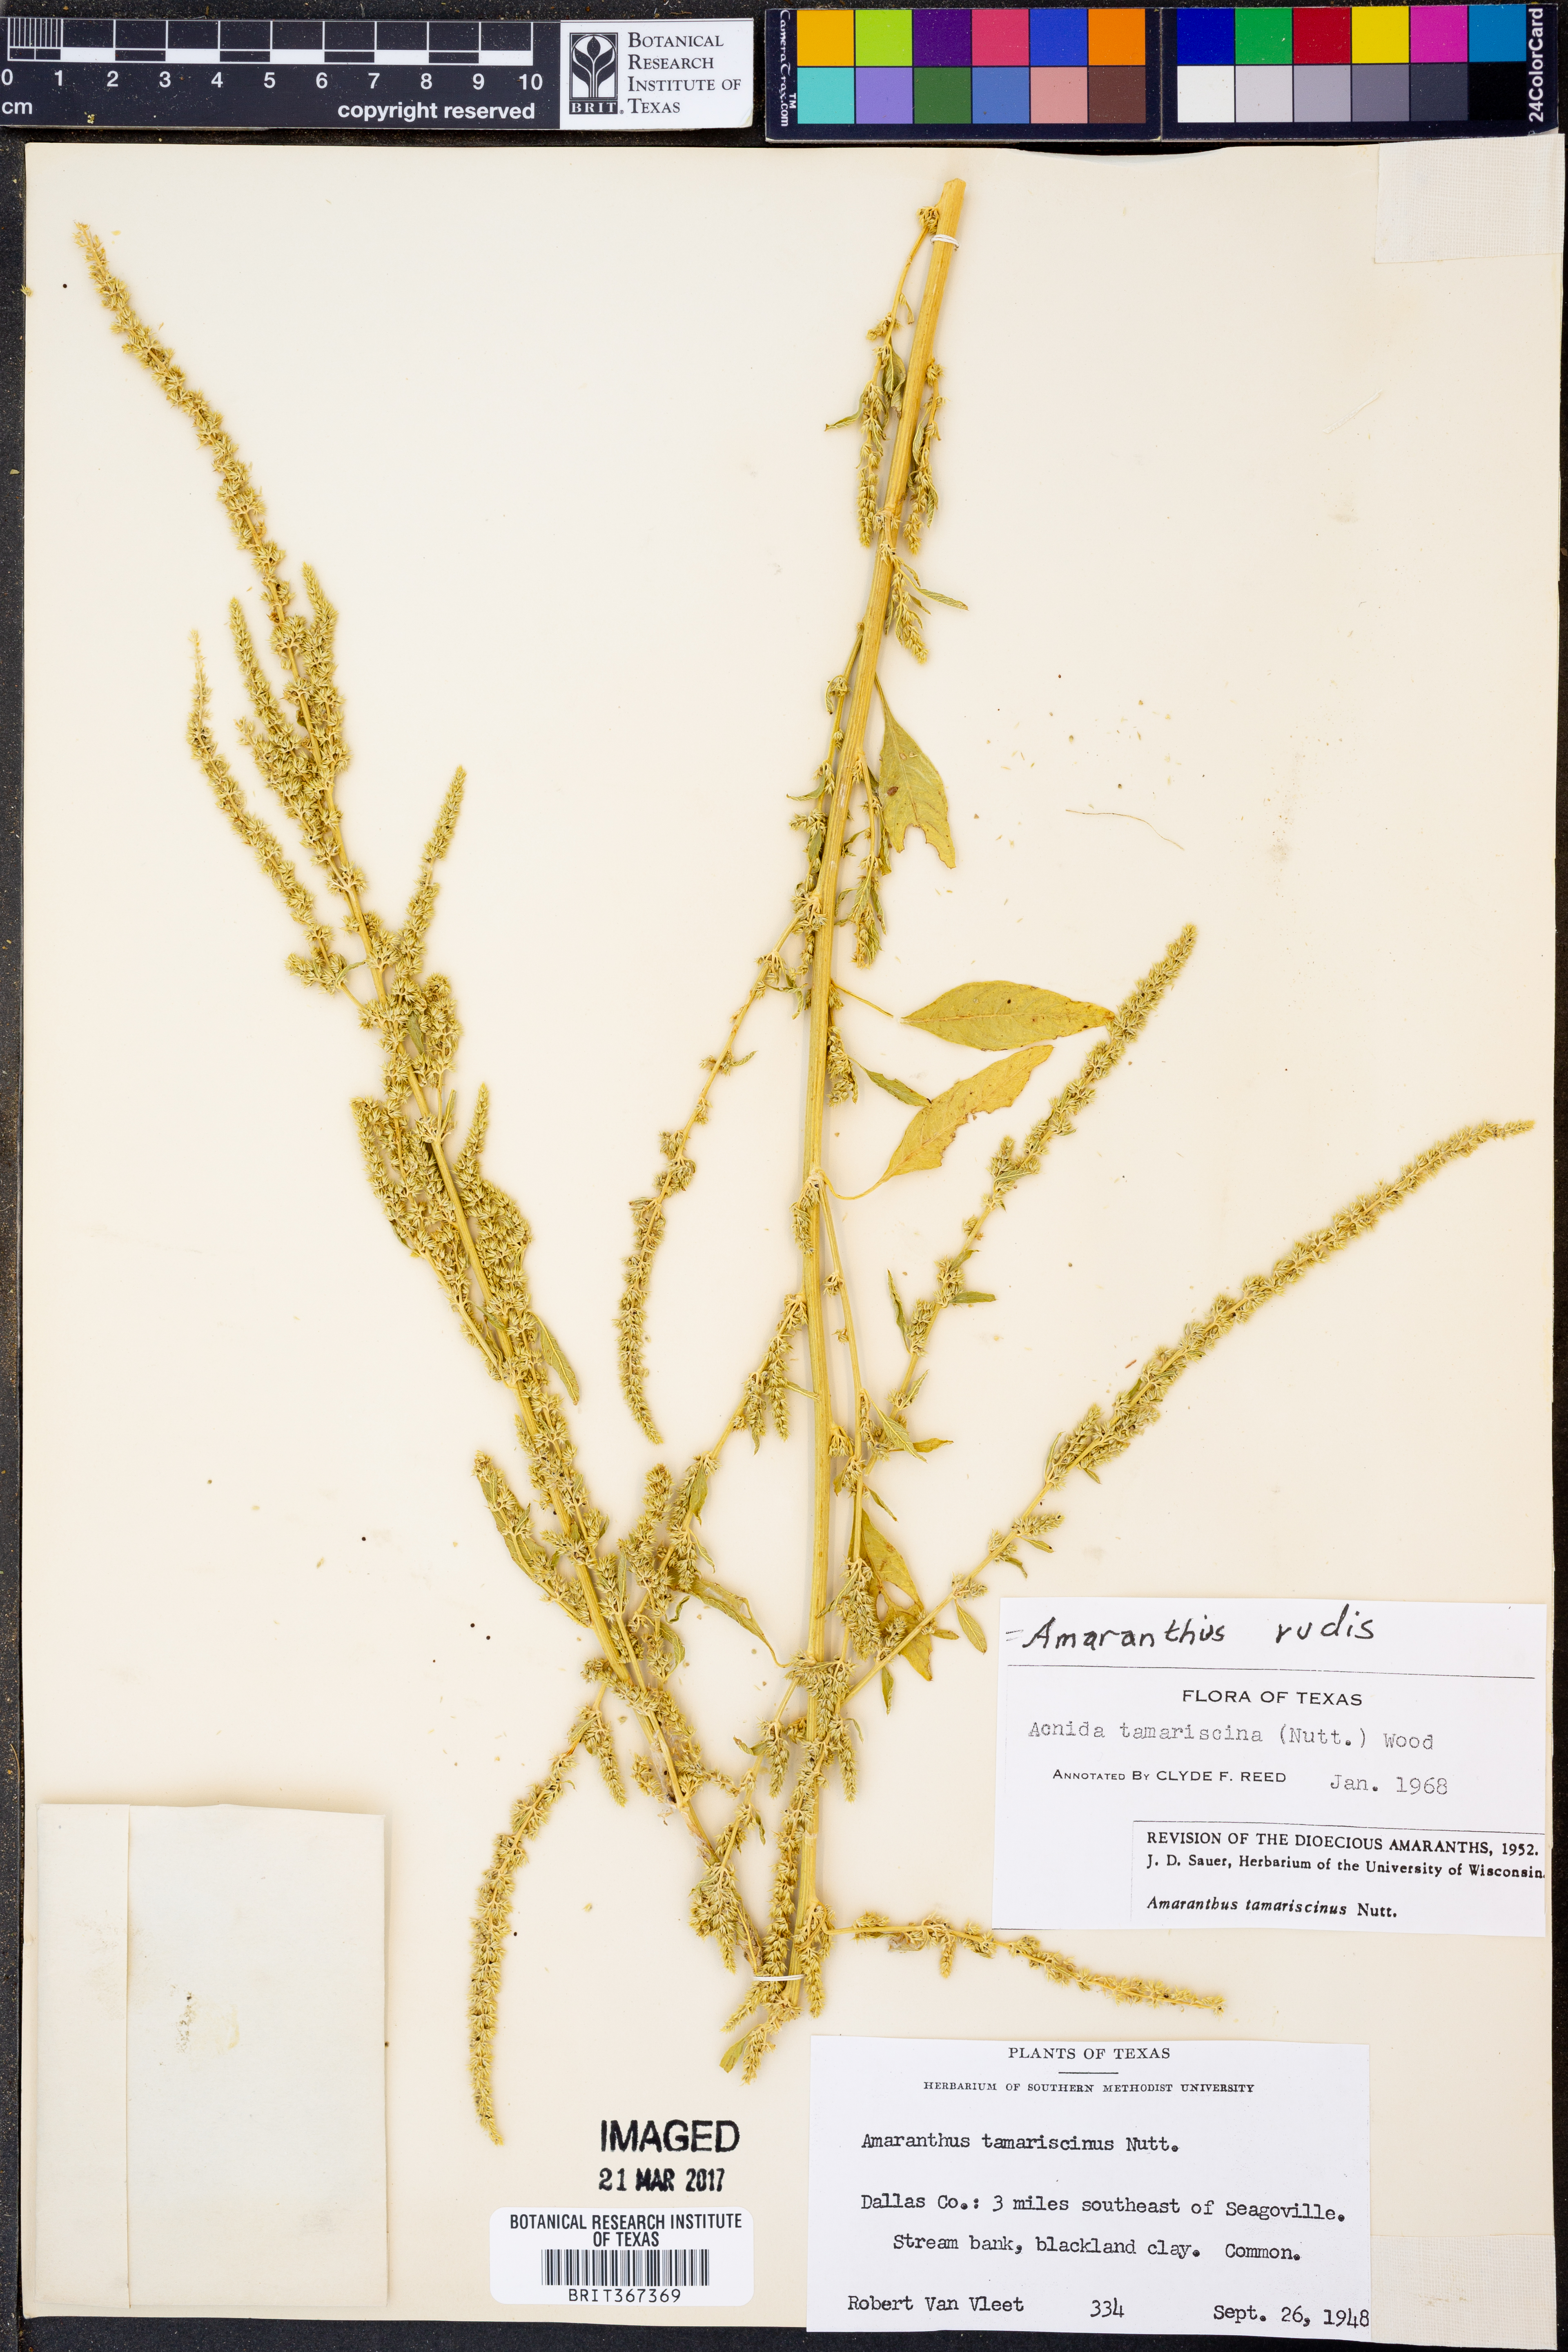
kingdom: Plantae
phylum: Tracheophyta
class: Magnoliopsida
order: Caryophyllales
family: Amaranthaceae
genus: Amaranthus
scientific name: Amaranthus tuberculatus
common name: Rough-fruit amaranth
